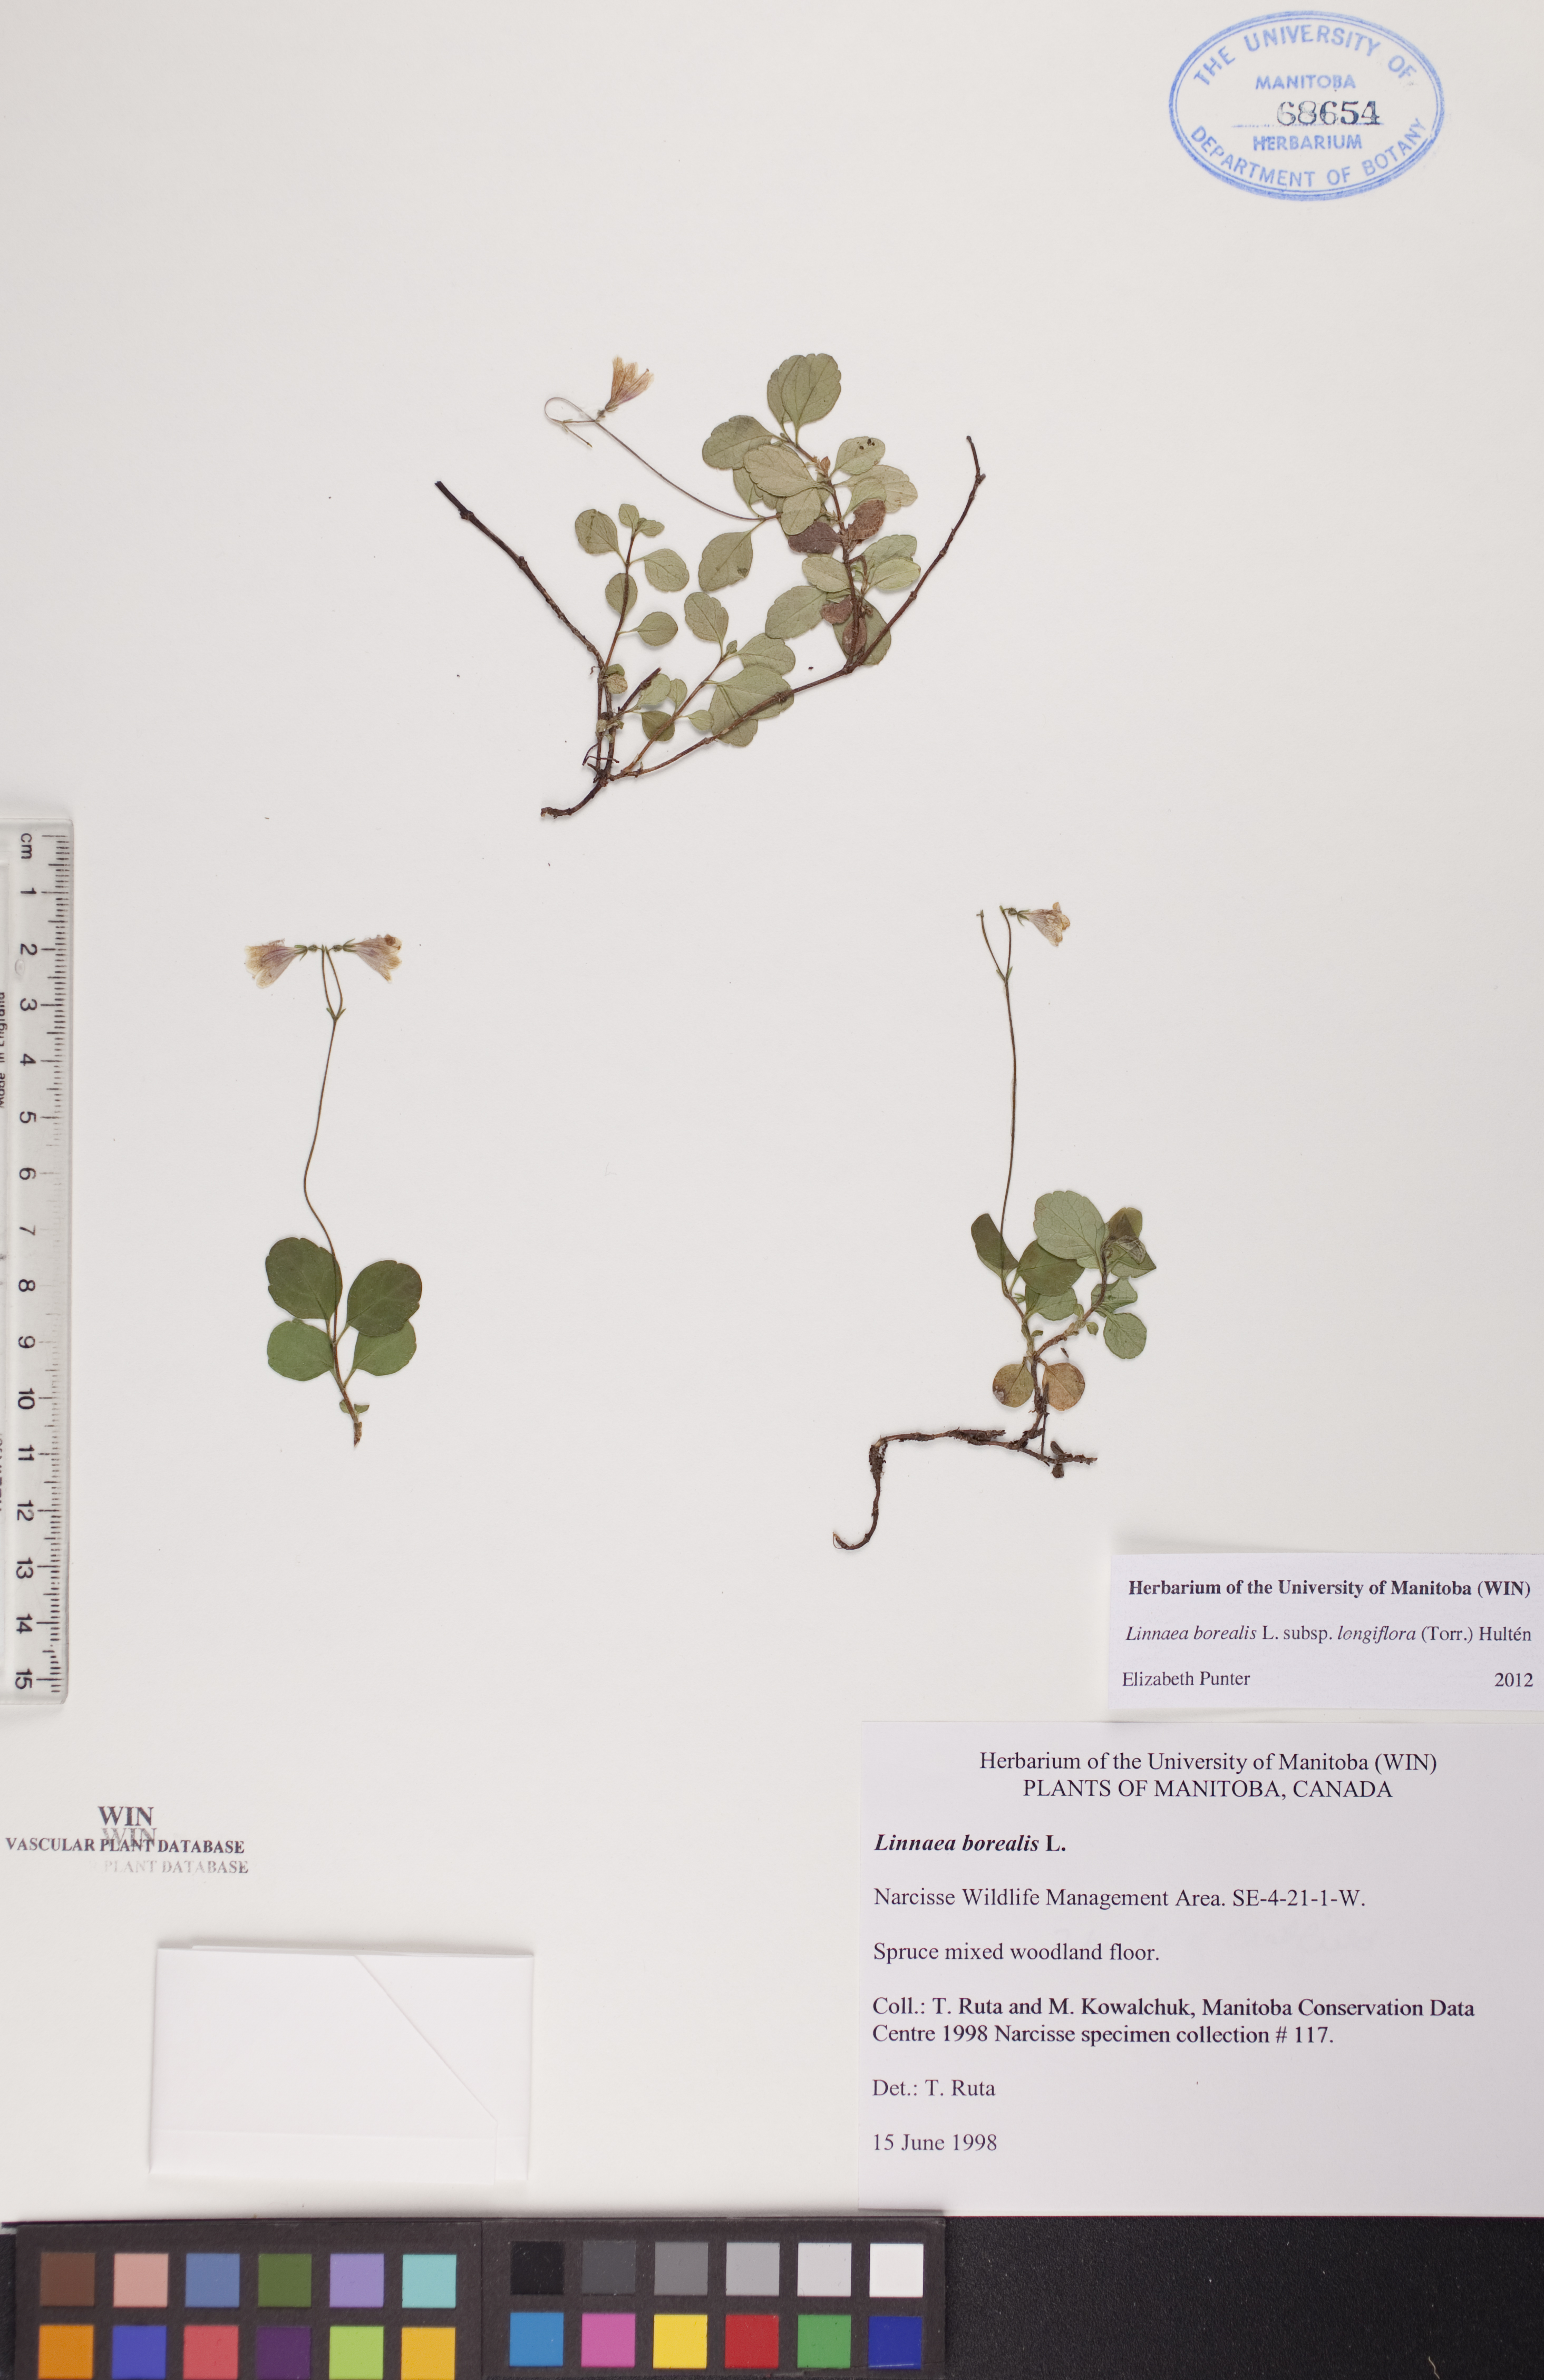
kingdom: Plantae
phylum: Tracheophyta
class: Magnoliopsida
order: Dipsacales
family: Caprifoliaceae
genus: Linnaea
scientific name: Linnaea borealis
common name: Twinflower
